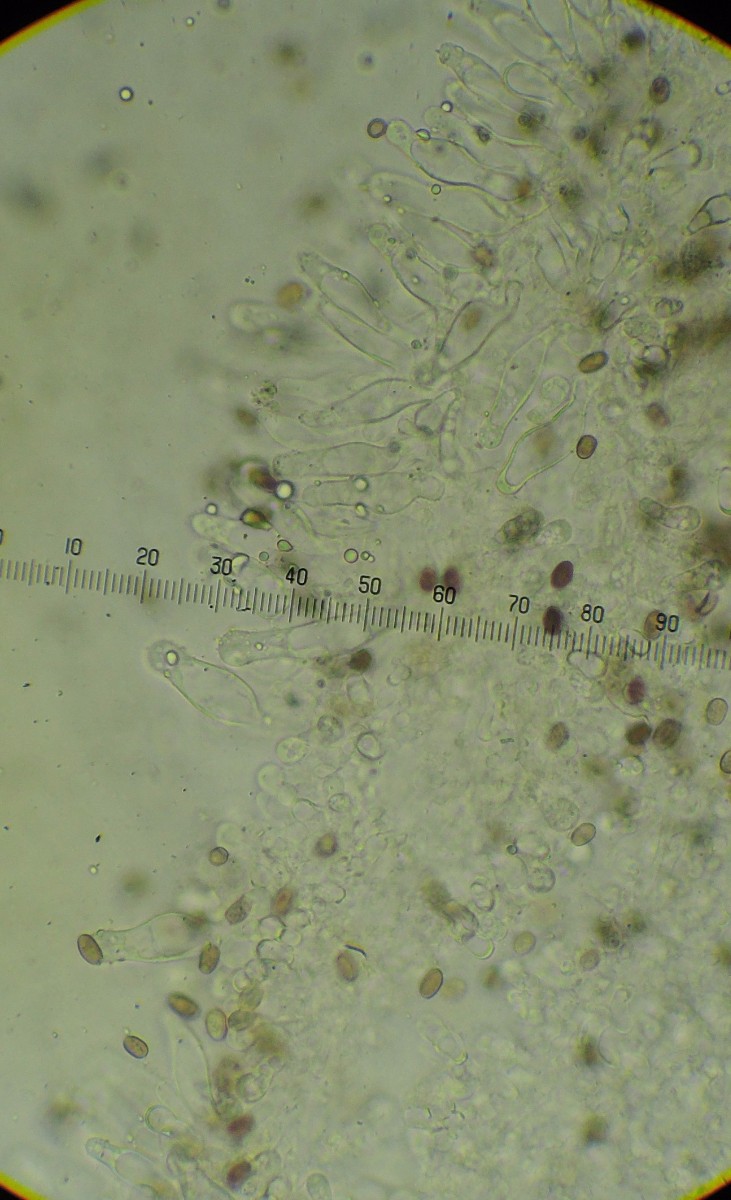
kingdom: Fungi
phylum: Basidiomycota
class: Agaricomycetes
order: Agaricales
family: Psathyrellaceae
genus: Psathyrella
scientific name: Psathyrella panaeoloides
